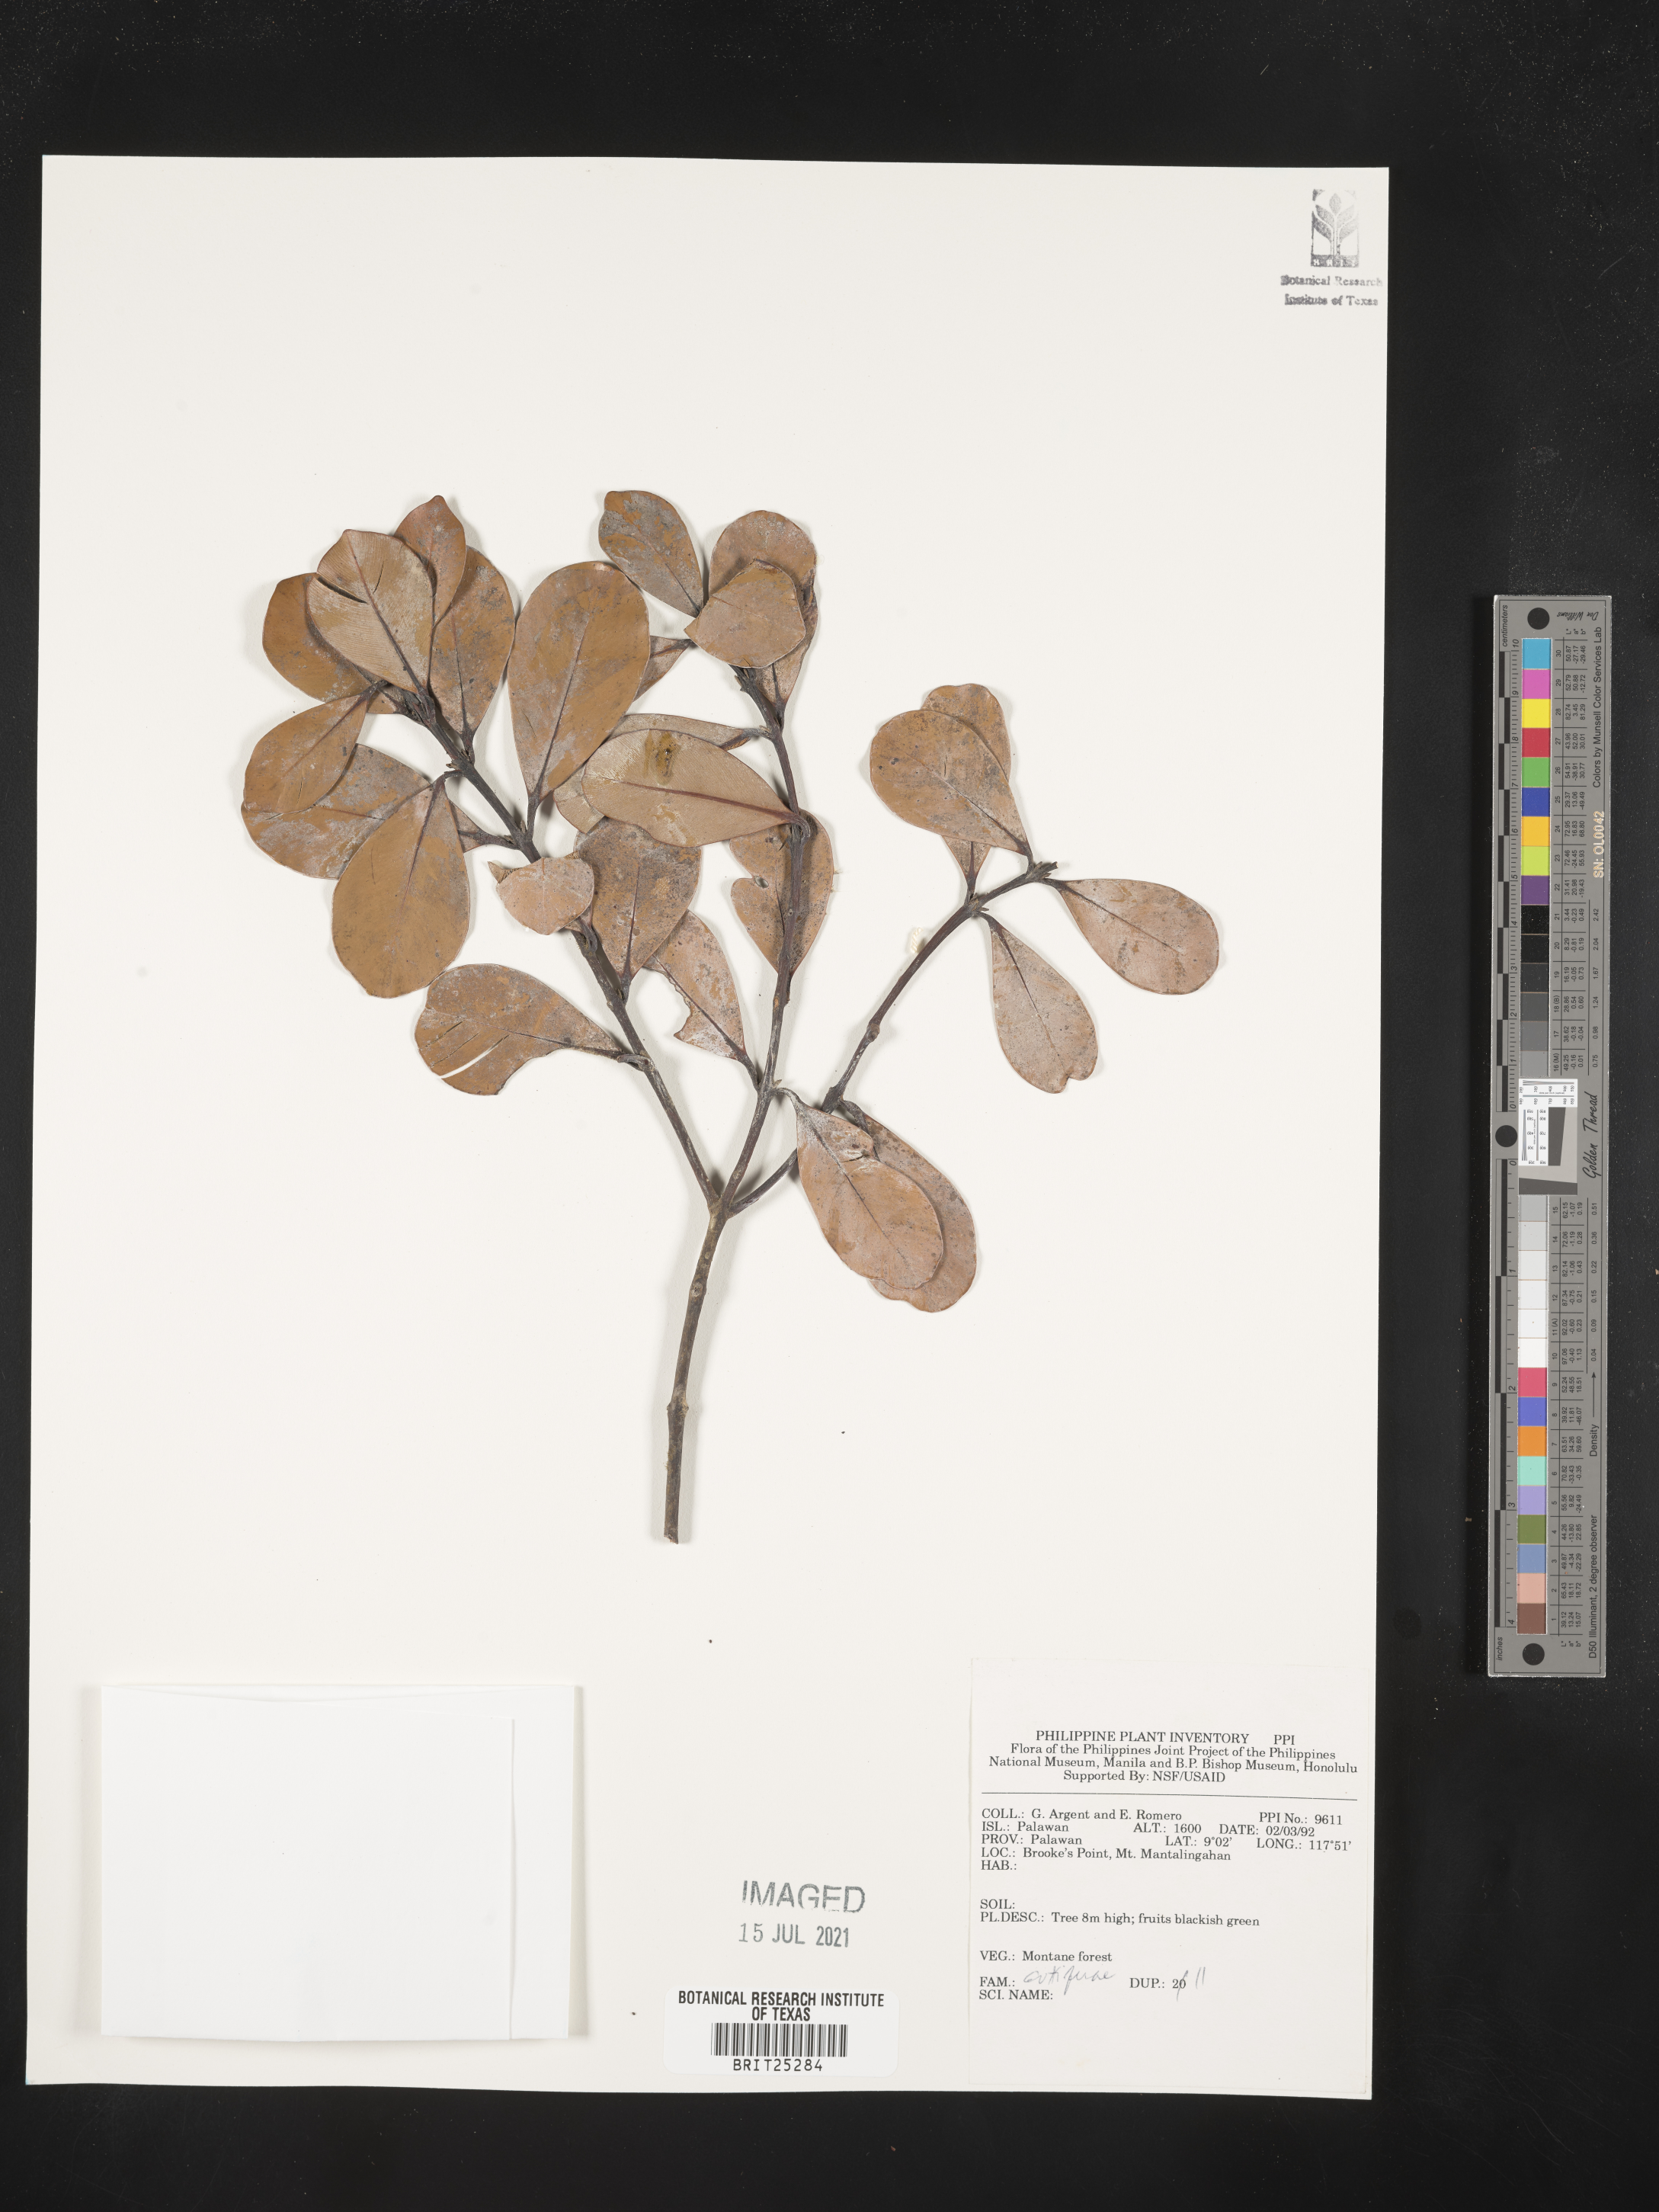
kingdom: Plantae
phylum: Tracheophyta
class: Magnoliopsida
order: Malpighiales
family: Hypericaceae
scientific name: Hypericaceae
